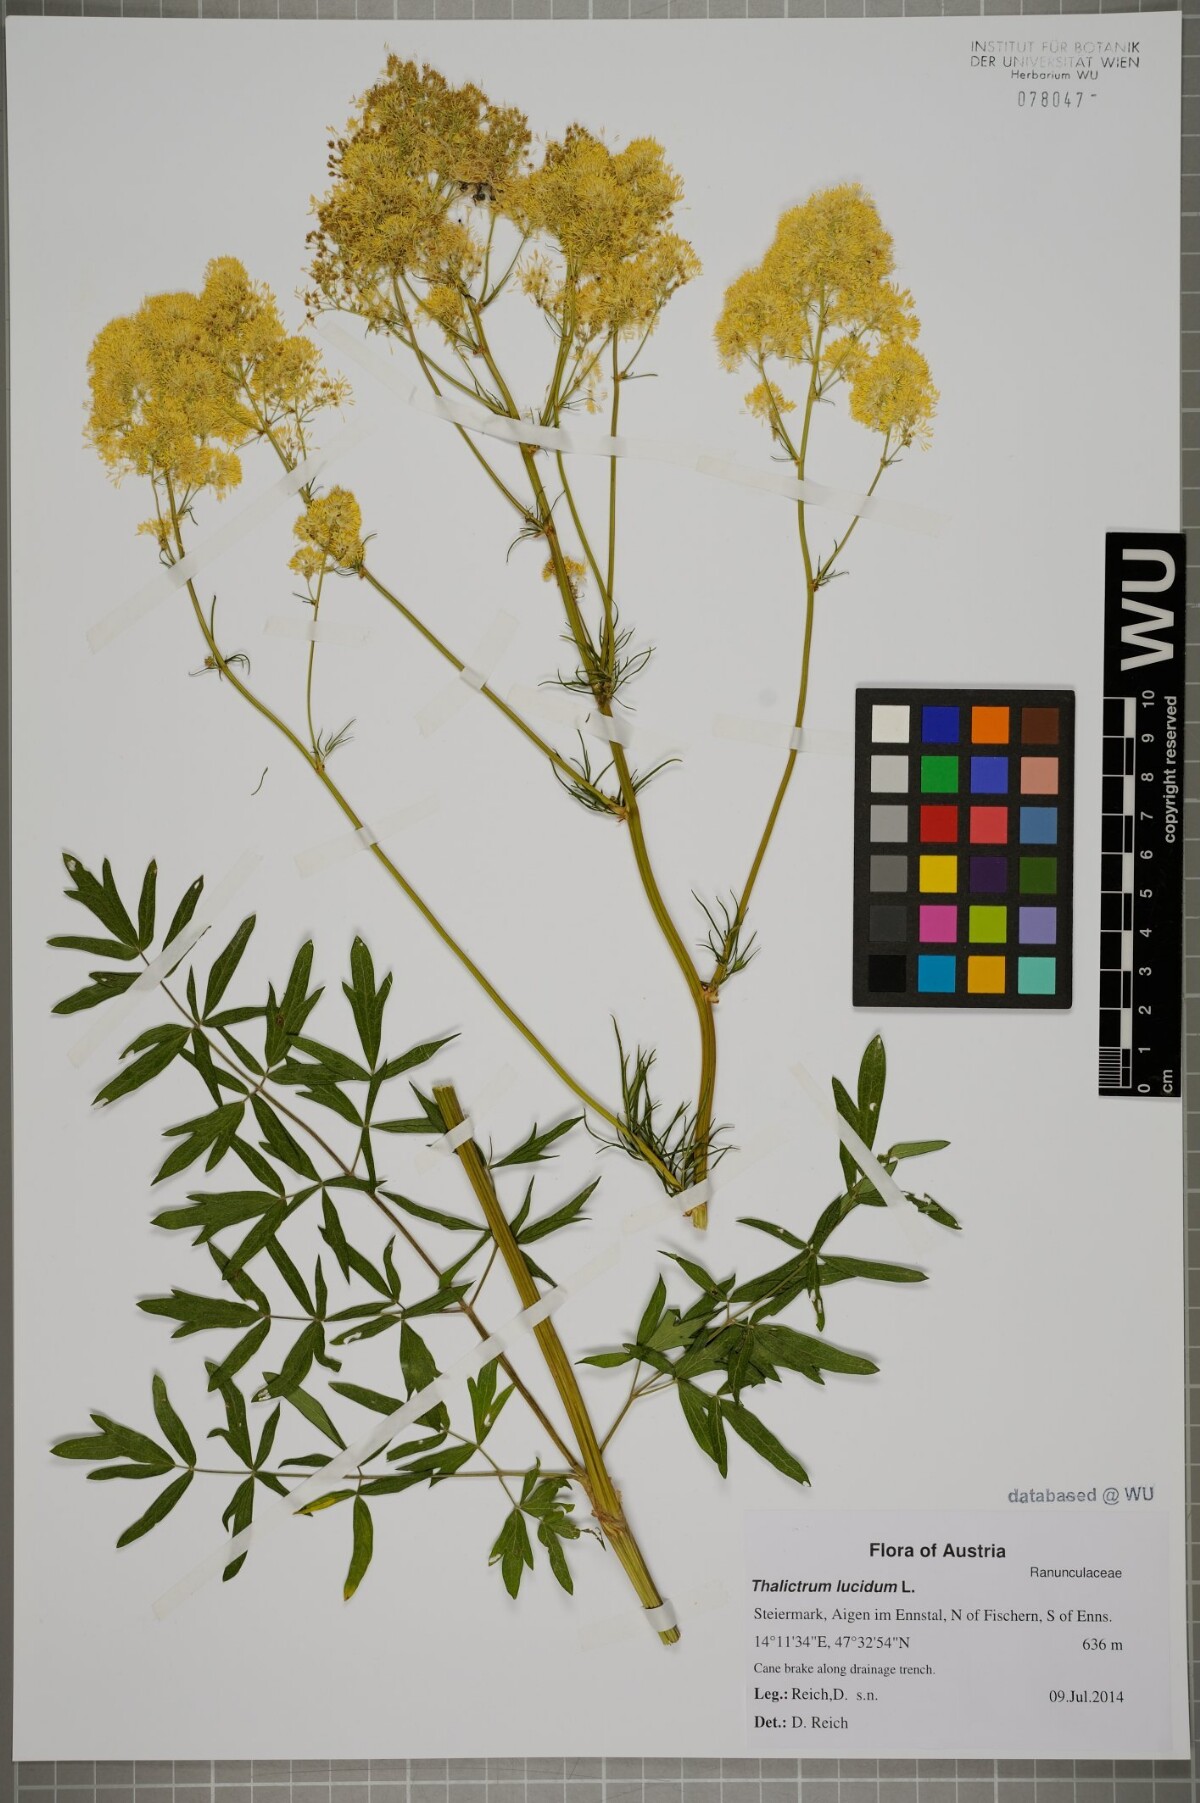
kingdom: Plantae
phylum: Tracheophyta
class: Magnoliopsida
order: Ranunculales
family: Ranunculaceae
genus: Thalictrum
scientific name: Thalictrum lucidum
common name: Shining meadow-rue
